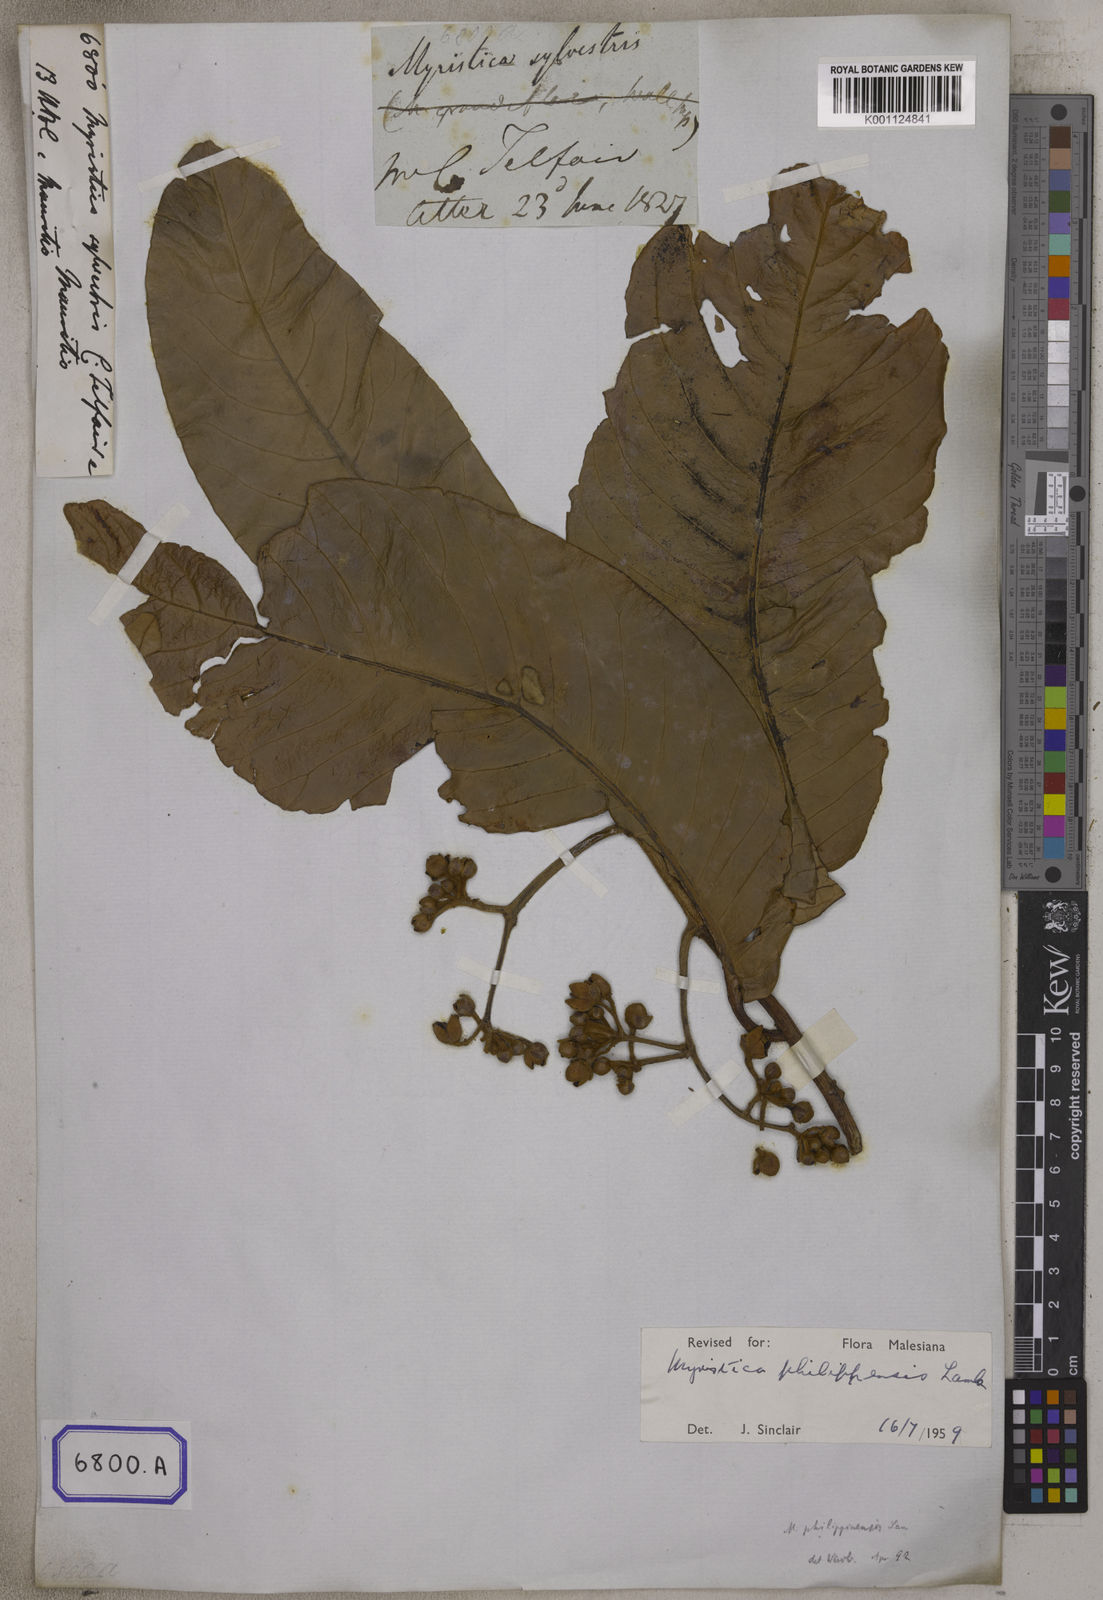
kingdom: Plantae
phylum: Tracheophyta
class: Magnoliopsida
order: Magnoliales
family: Myristicaceae
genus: Horsfieldia
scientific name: Horsfieldia sylvestris
